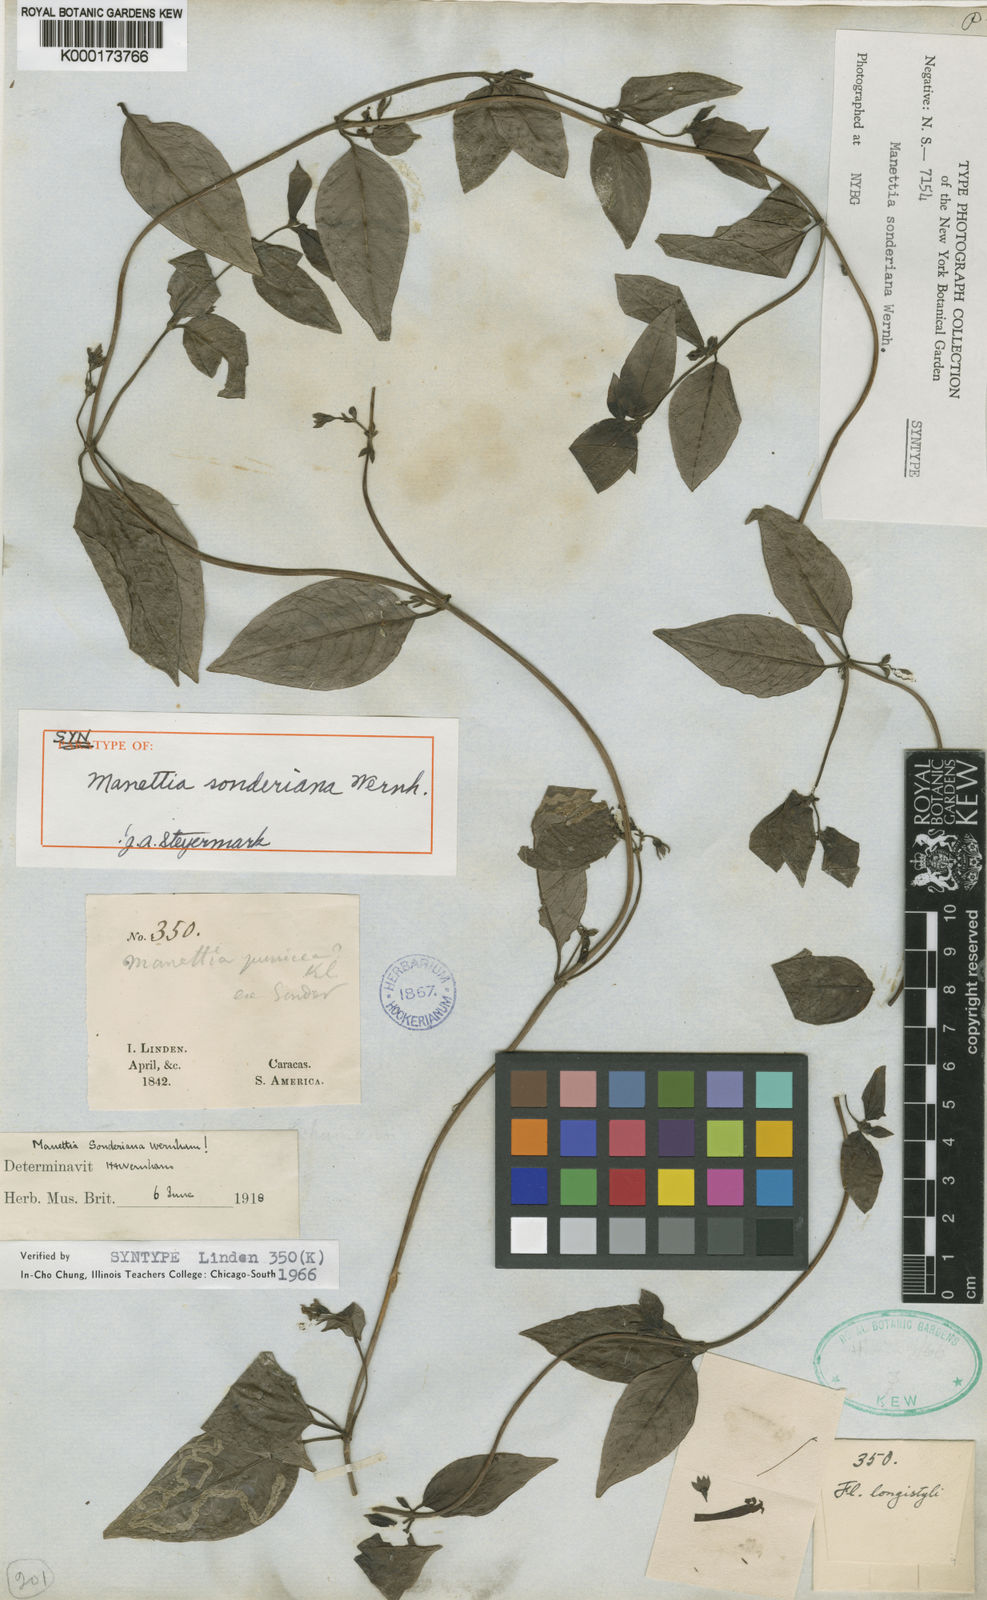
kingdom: Plantae
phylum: Tracheophyta
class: Magnoliopsida
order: Gentianales
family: Rubiaceae
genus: Manettia
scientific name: Manettia sonderiana
